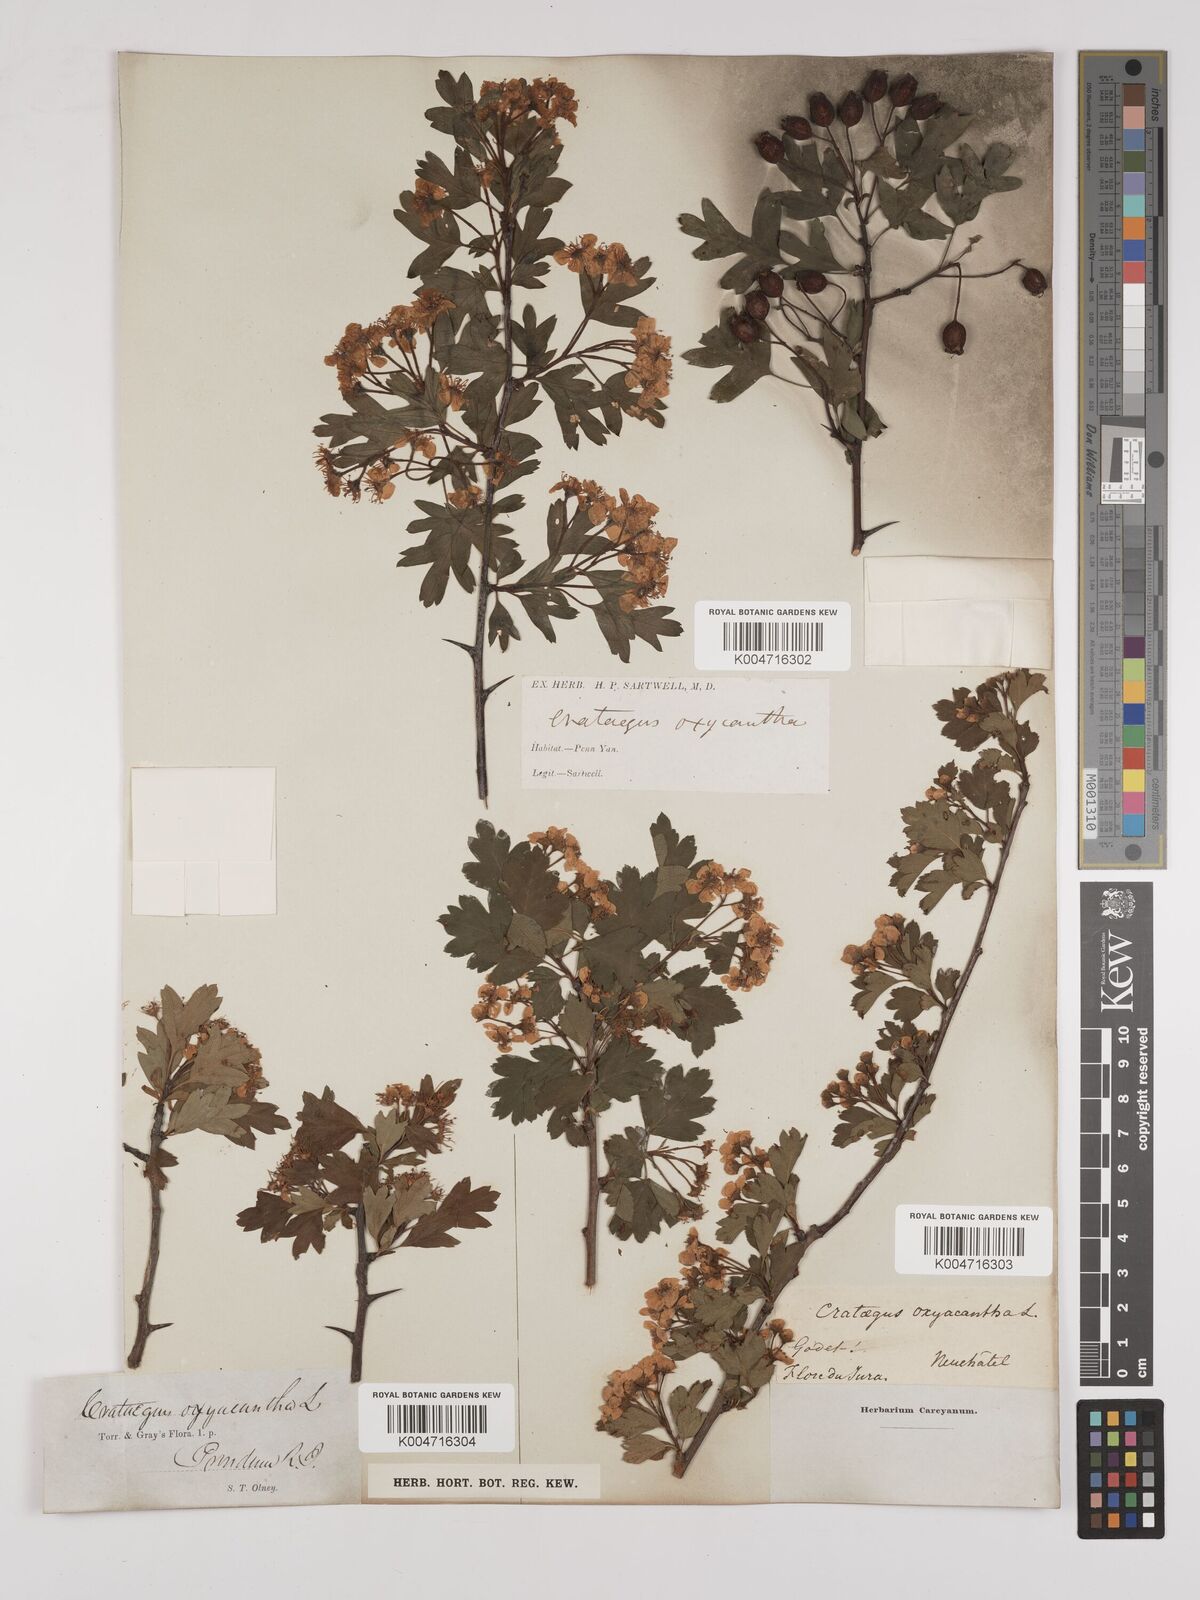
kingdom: Plantae
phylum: Tracheophyta
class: Magnoliopsida
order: Rosales
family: Rosaceae
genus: Crataegus
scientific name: Crataegus monogyna
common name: Hawthorn
